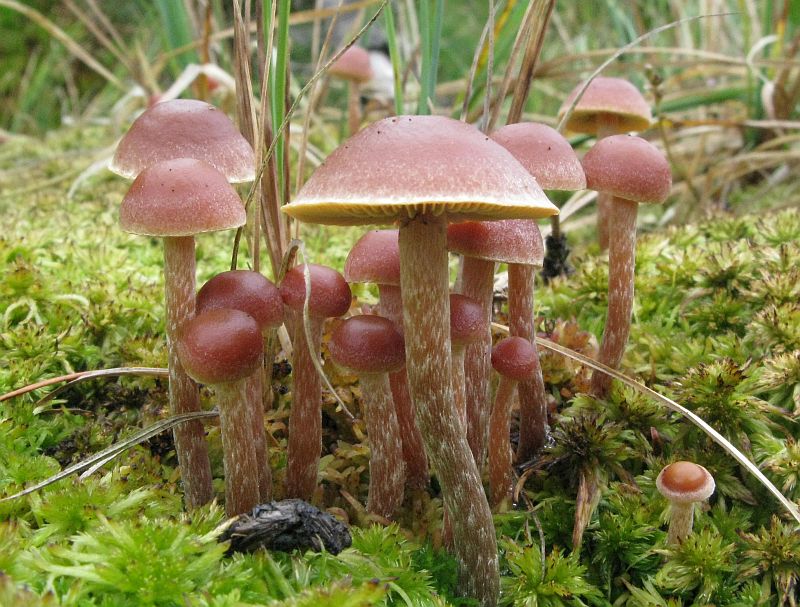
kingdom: Fungi
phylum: Basidiomycota
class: Agaricomycetes
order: Agaricales
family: Strophariaceae
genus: Bogbodia
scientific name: Bogbodia uda
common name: tørve-svovlhat
